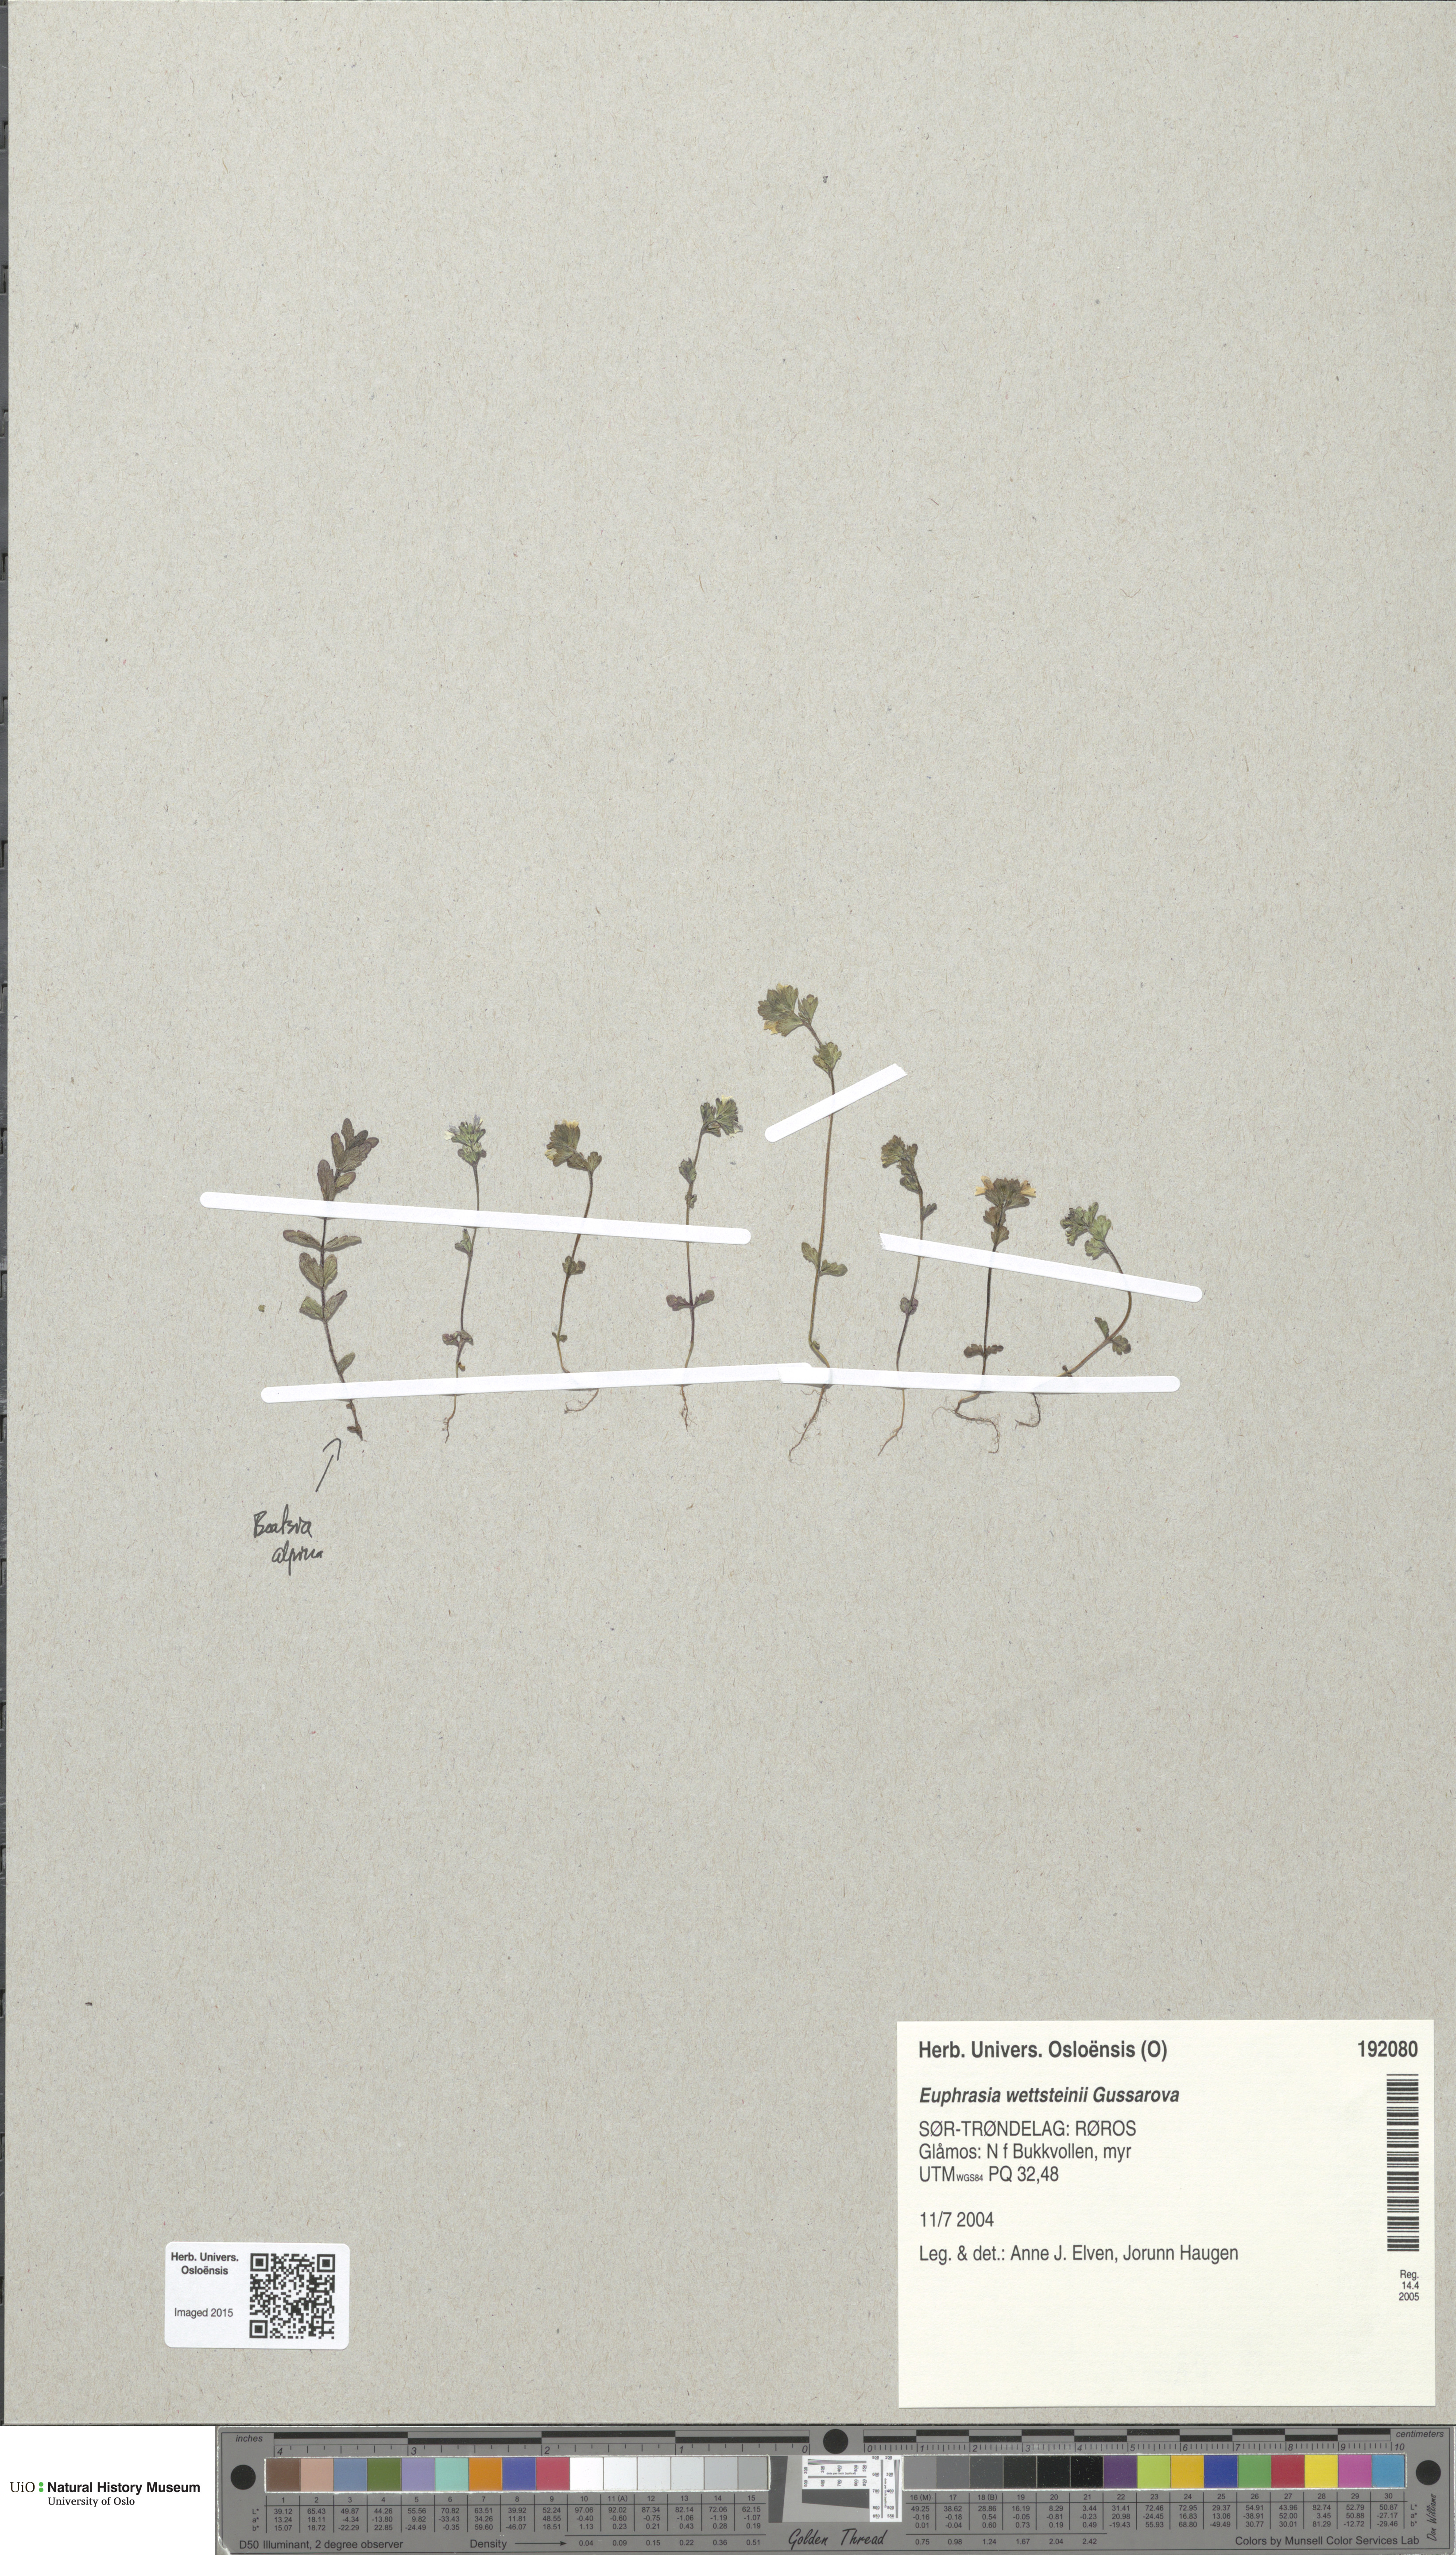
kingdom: Plantae
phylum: Tracheophyta
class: Magnoliopsida
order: Lamiales
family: Orobanchaceae
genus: Euphrasia
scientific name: Euphrasia wettsteinii
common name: Wettstein's eyebright
